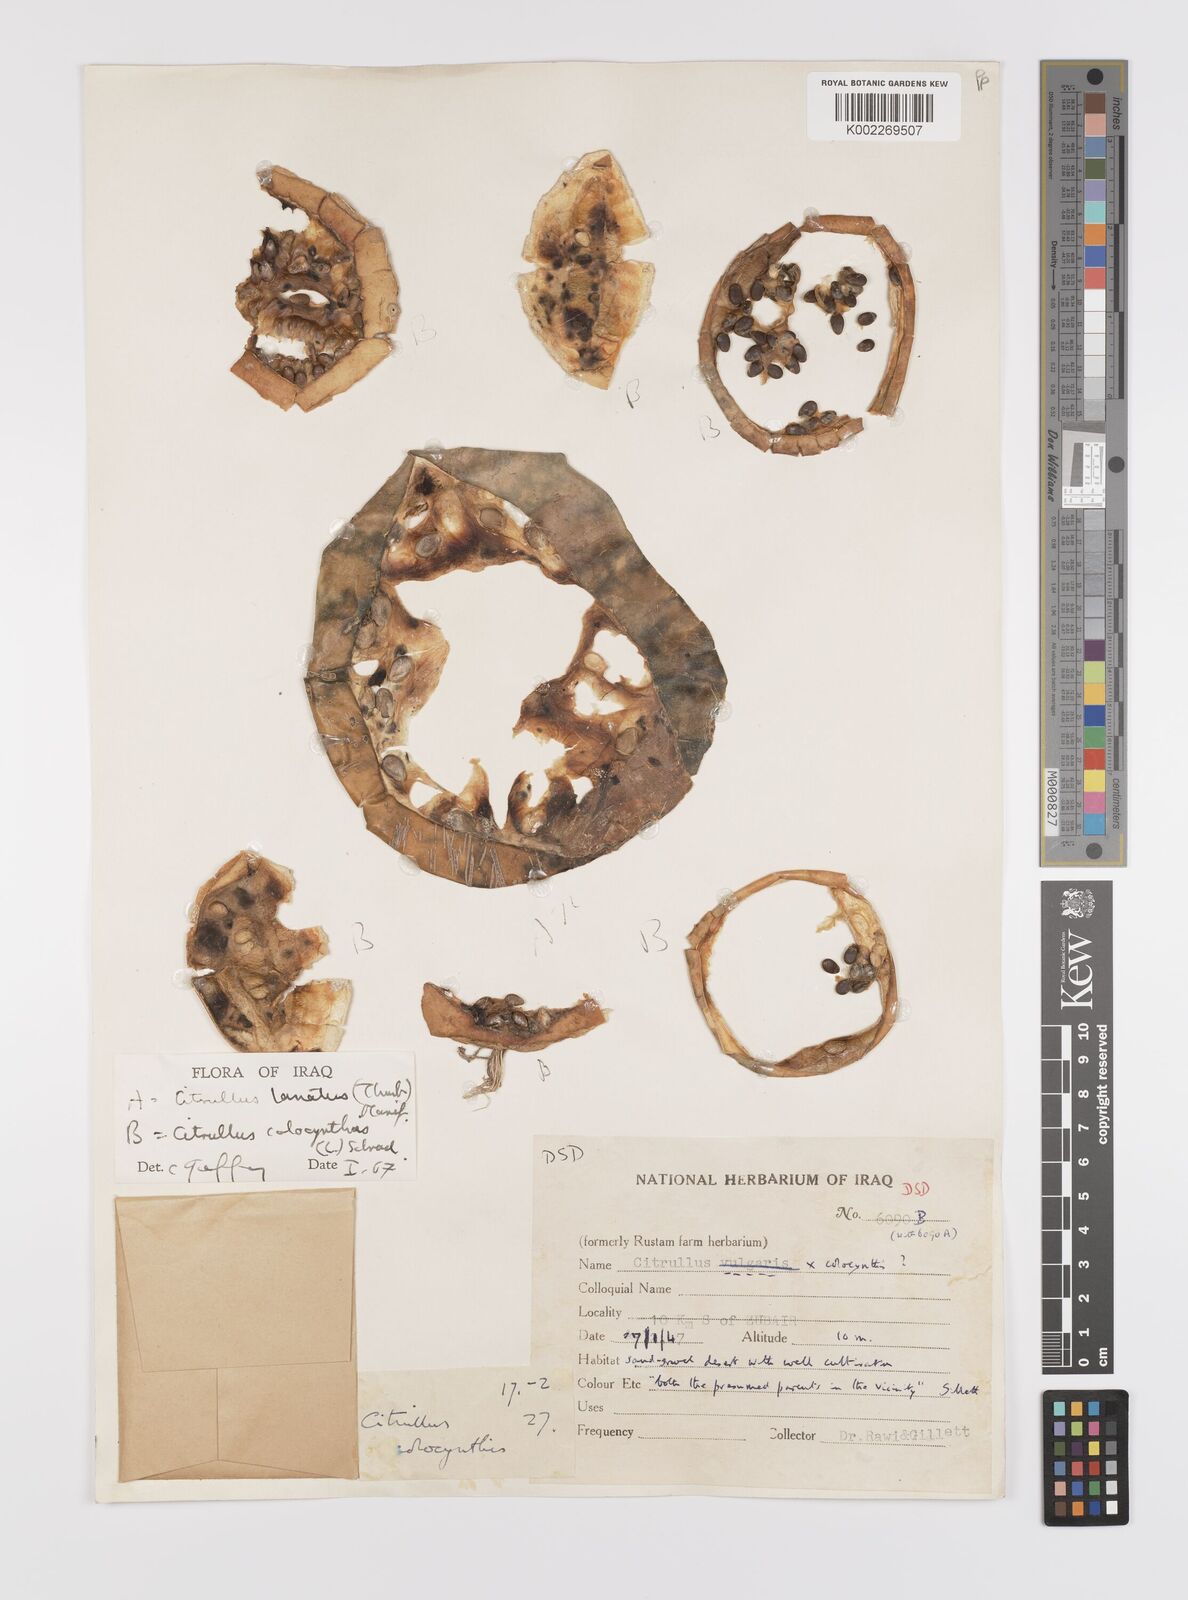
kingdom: Plantae
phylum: Tracheophyta
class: Magnoliopsida
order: Cucurbitales
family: Cucurbitaceae
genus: Citrullus
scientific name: Citrullus colocynthis
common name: Colocynth
